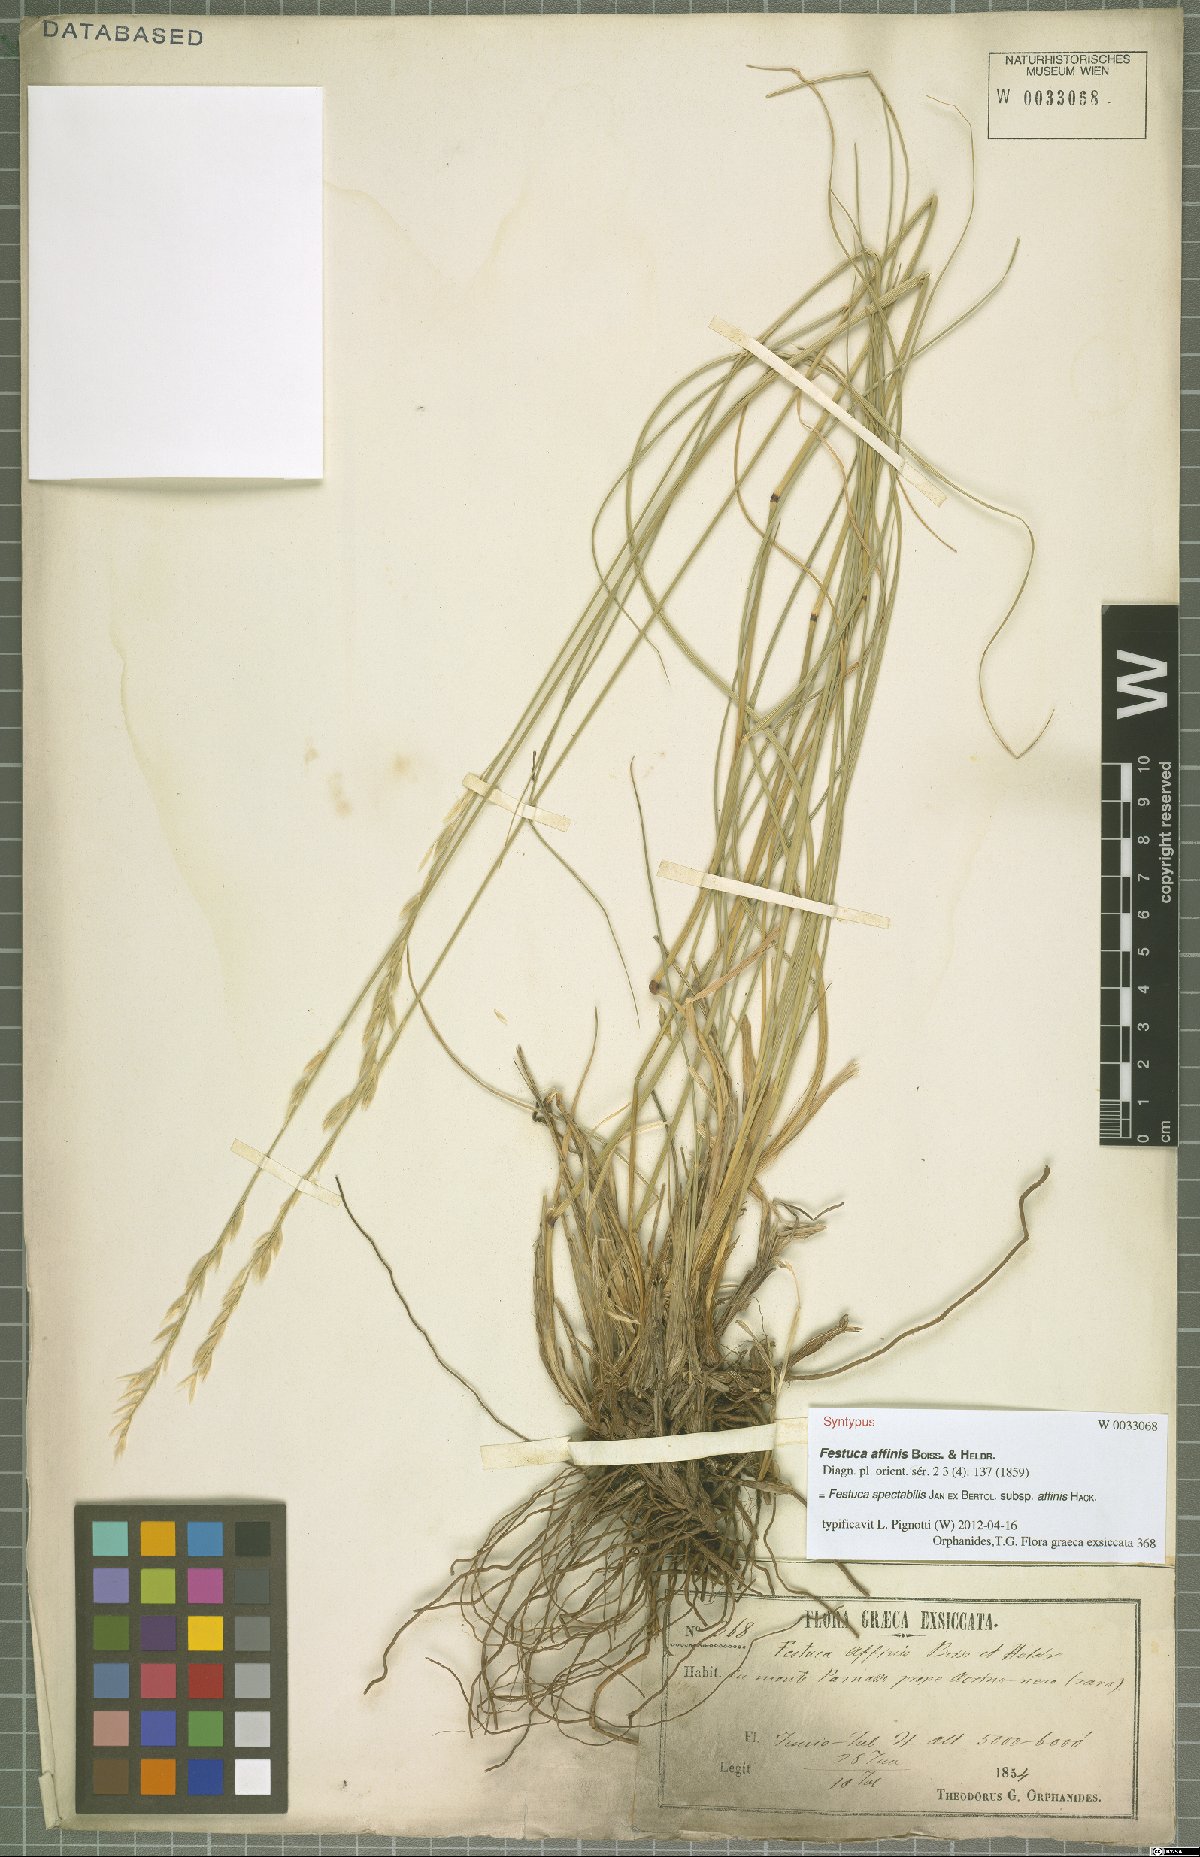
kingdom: Plantae
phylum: Tracheophyta
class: Liliopsida
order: Poales
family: Poaceae
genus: Festuca
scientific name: Festuca spectabilis
